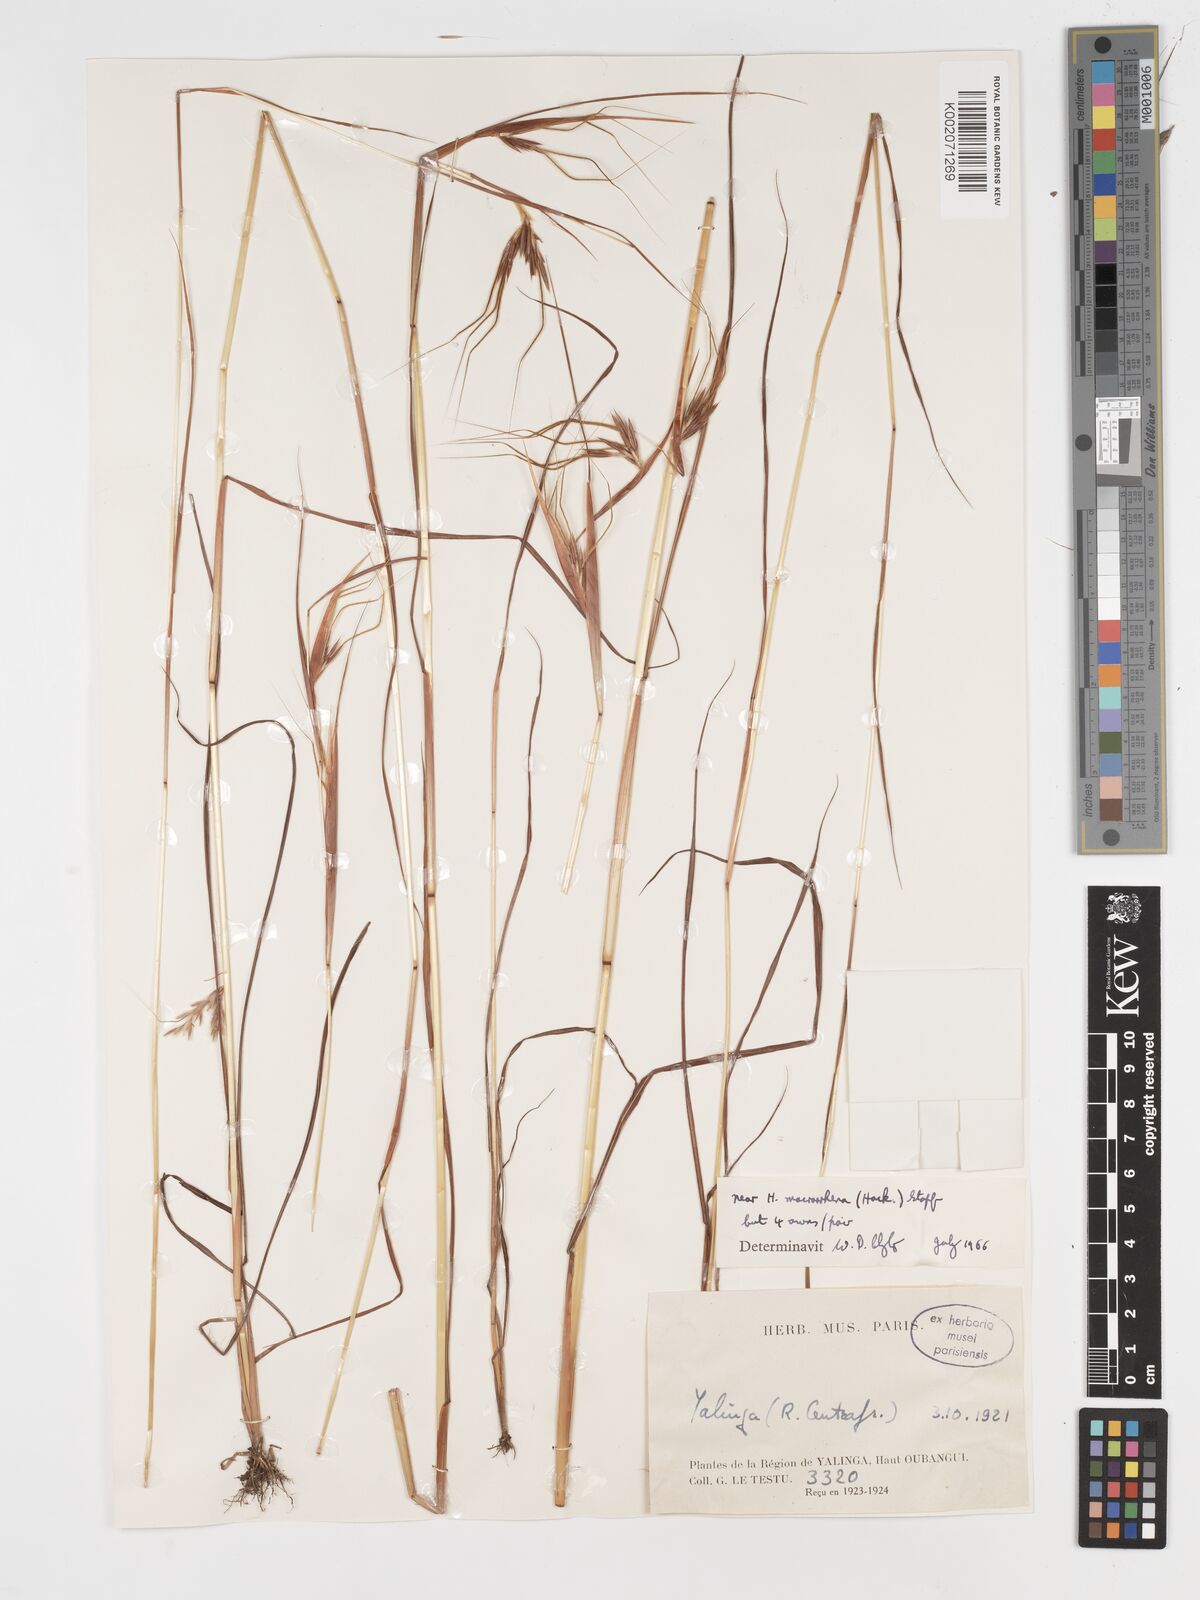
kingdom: Plantae
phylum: Tracheophyta
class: Liliopsida
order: Poales
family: Poaceae
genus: Hyparrhenia
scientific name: Hyparrhenia niariensis
